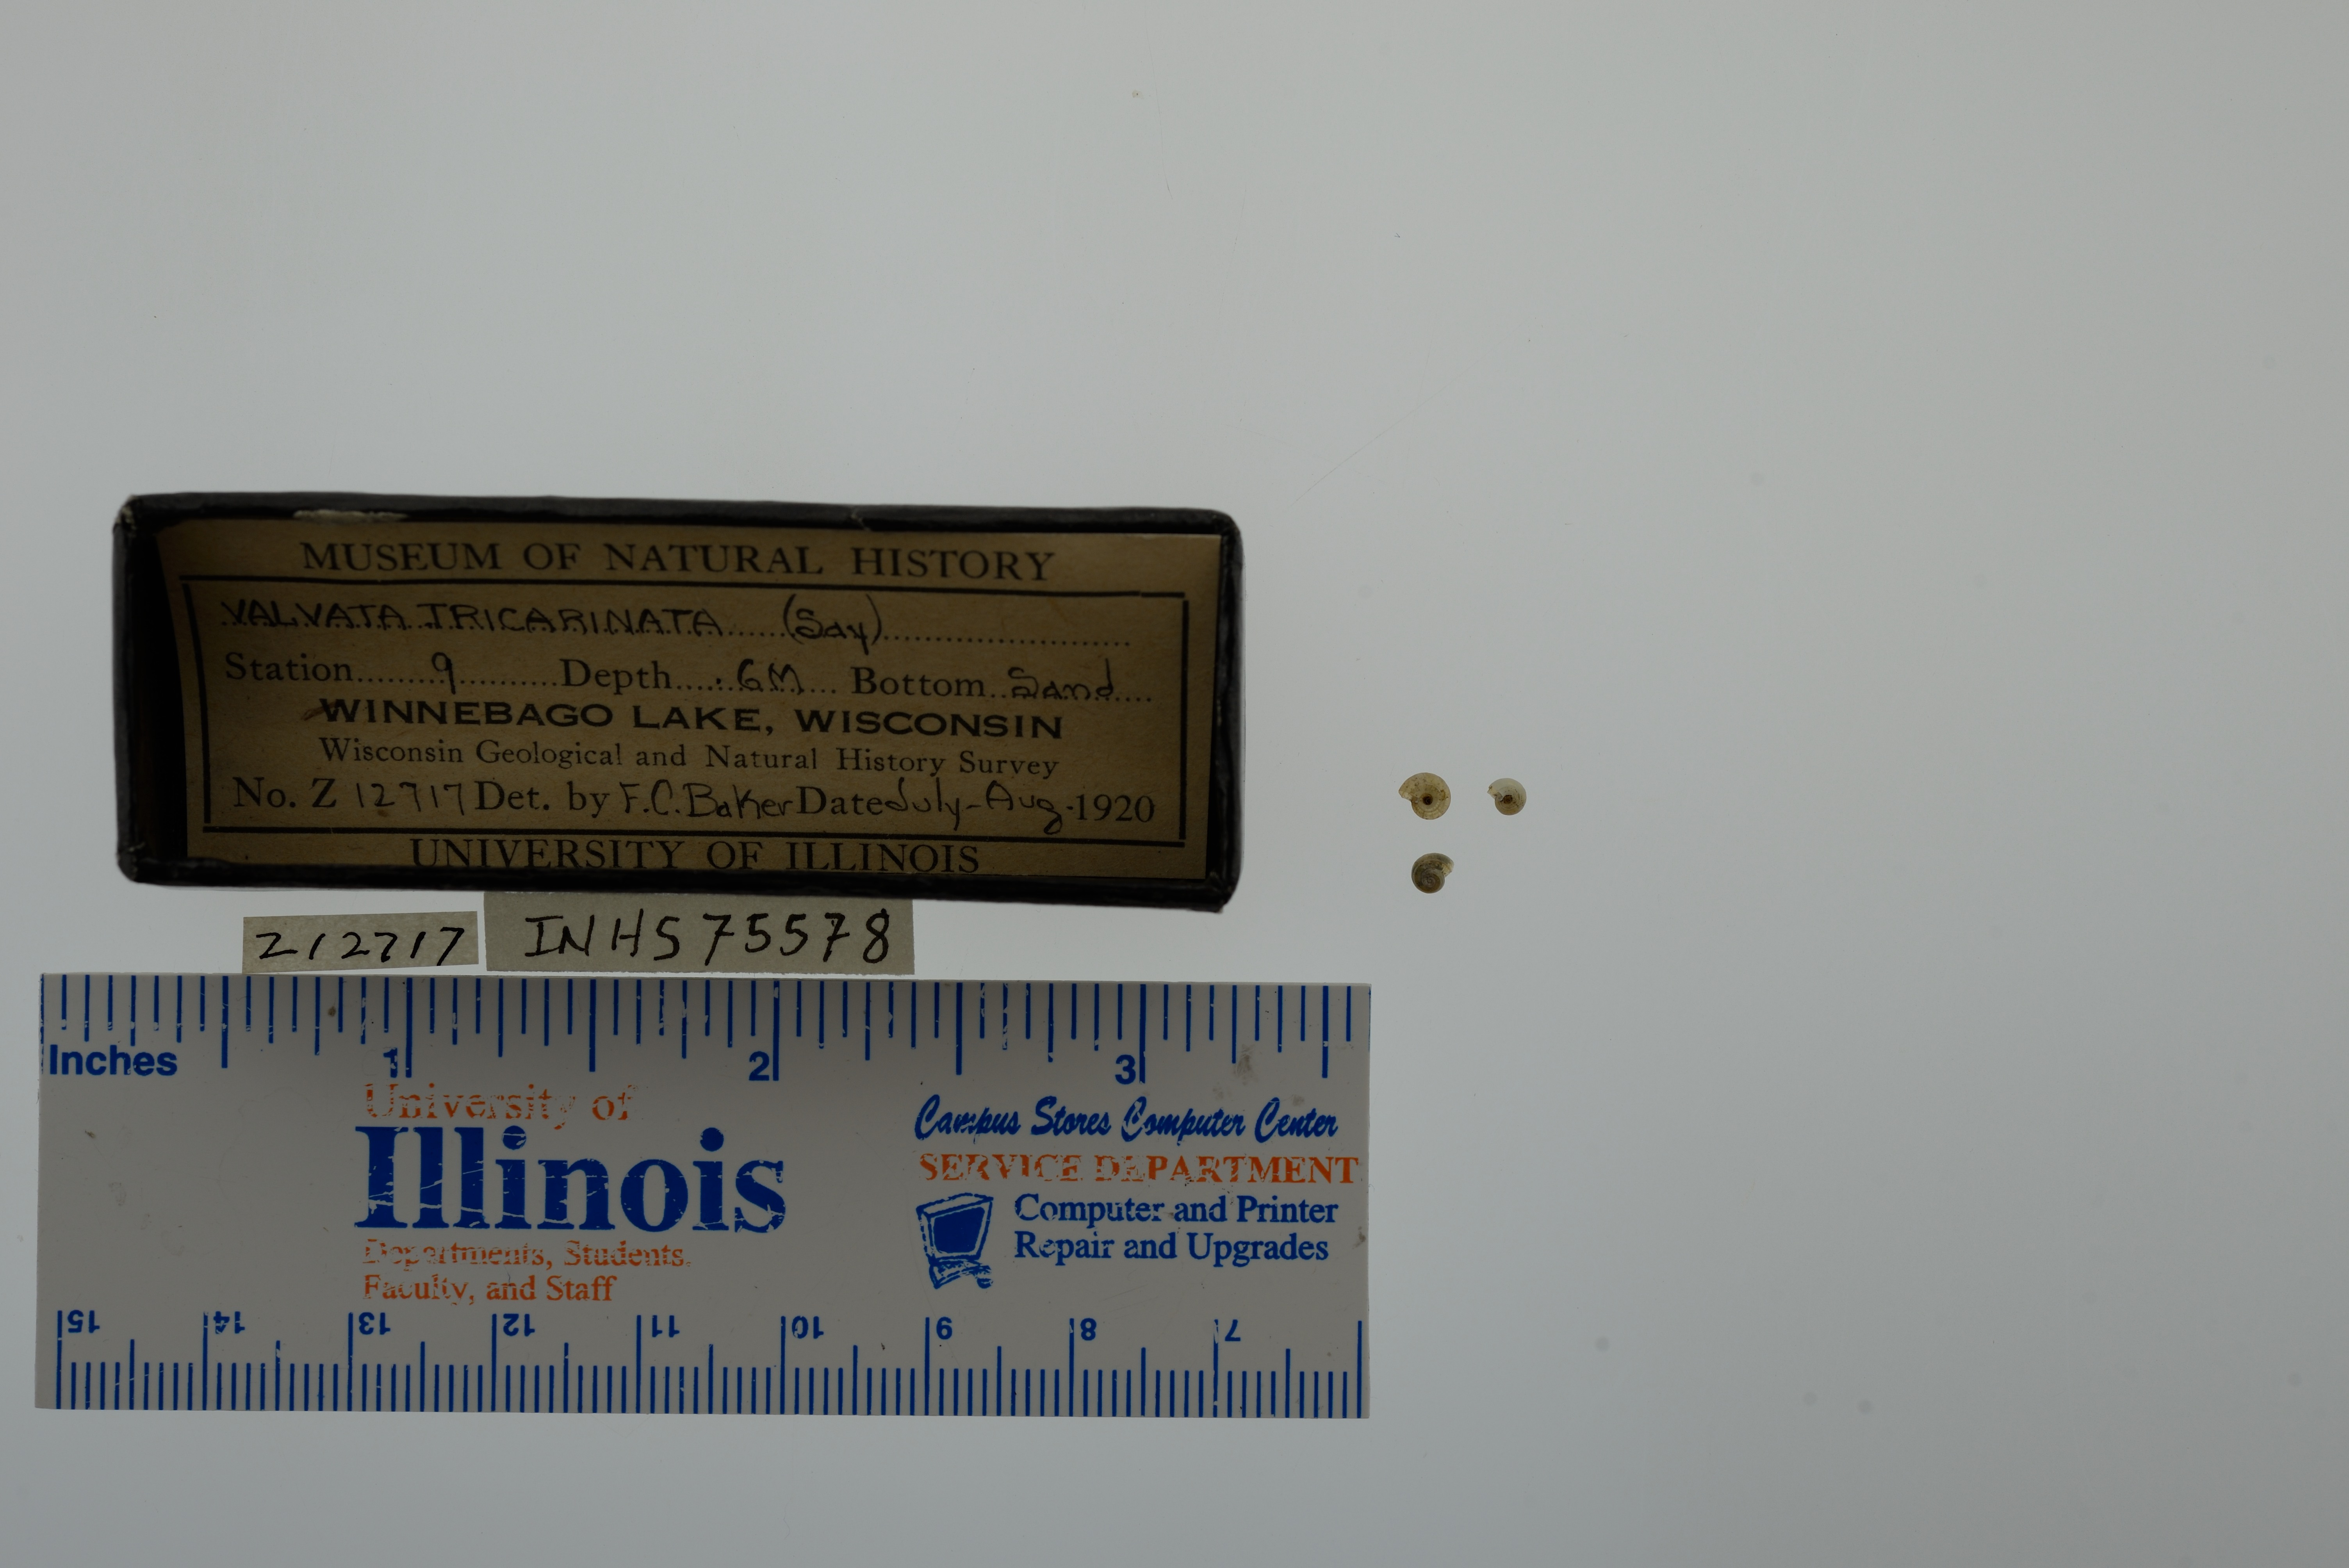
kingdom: Animalia
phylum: Mollusca
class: Gastropoda
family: Valvatidae
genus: Valvata
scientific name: Valvata tricarinata
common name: Three-ridge valvata
